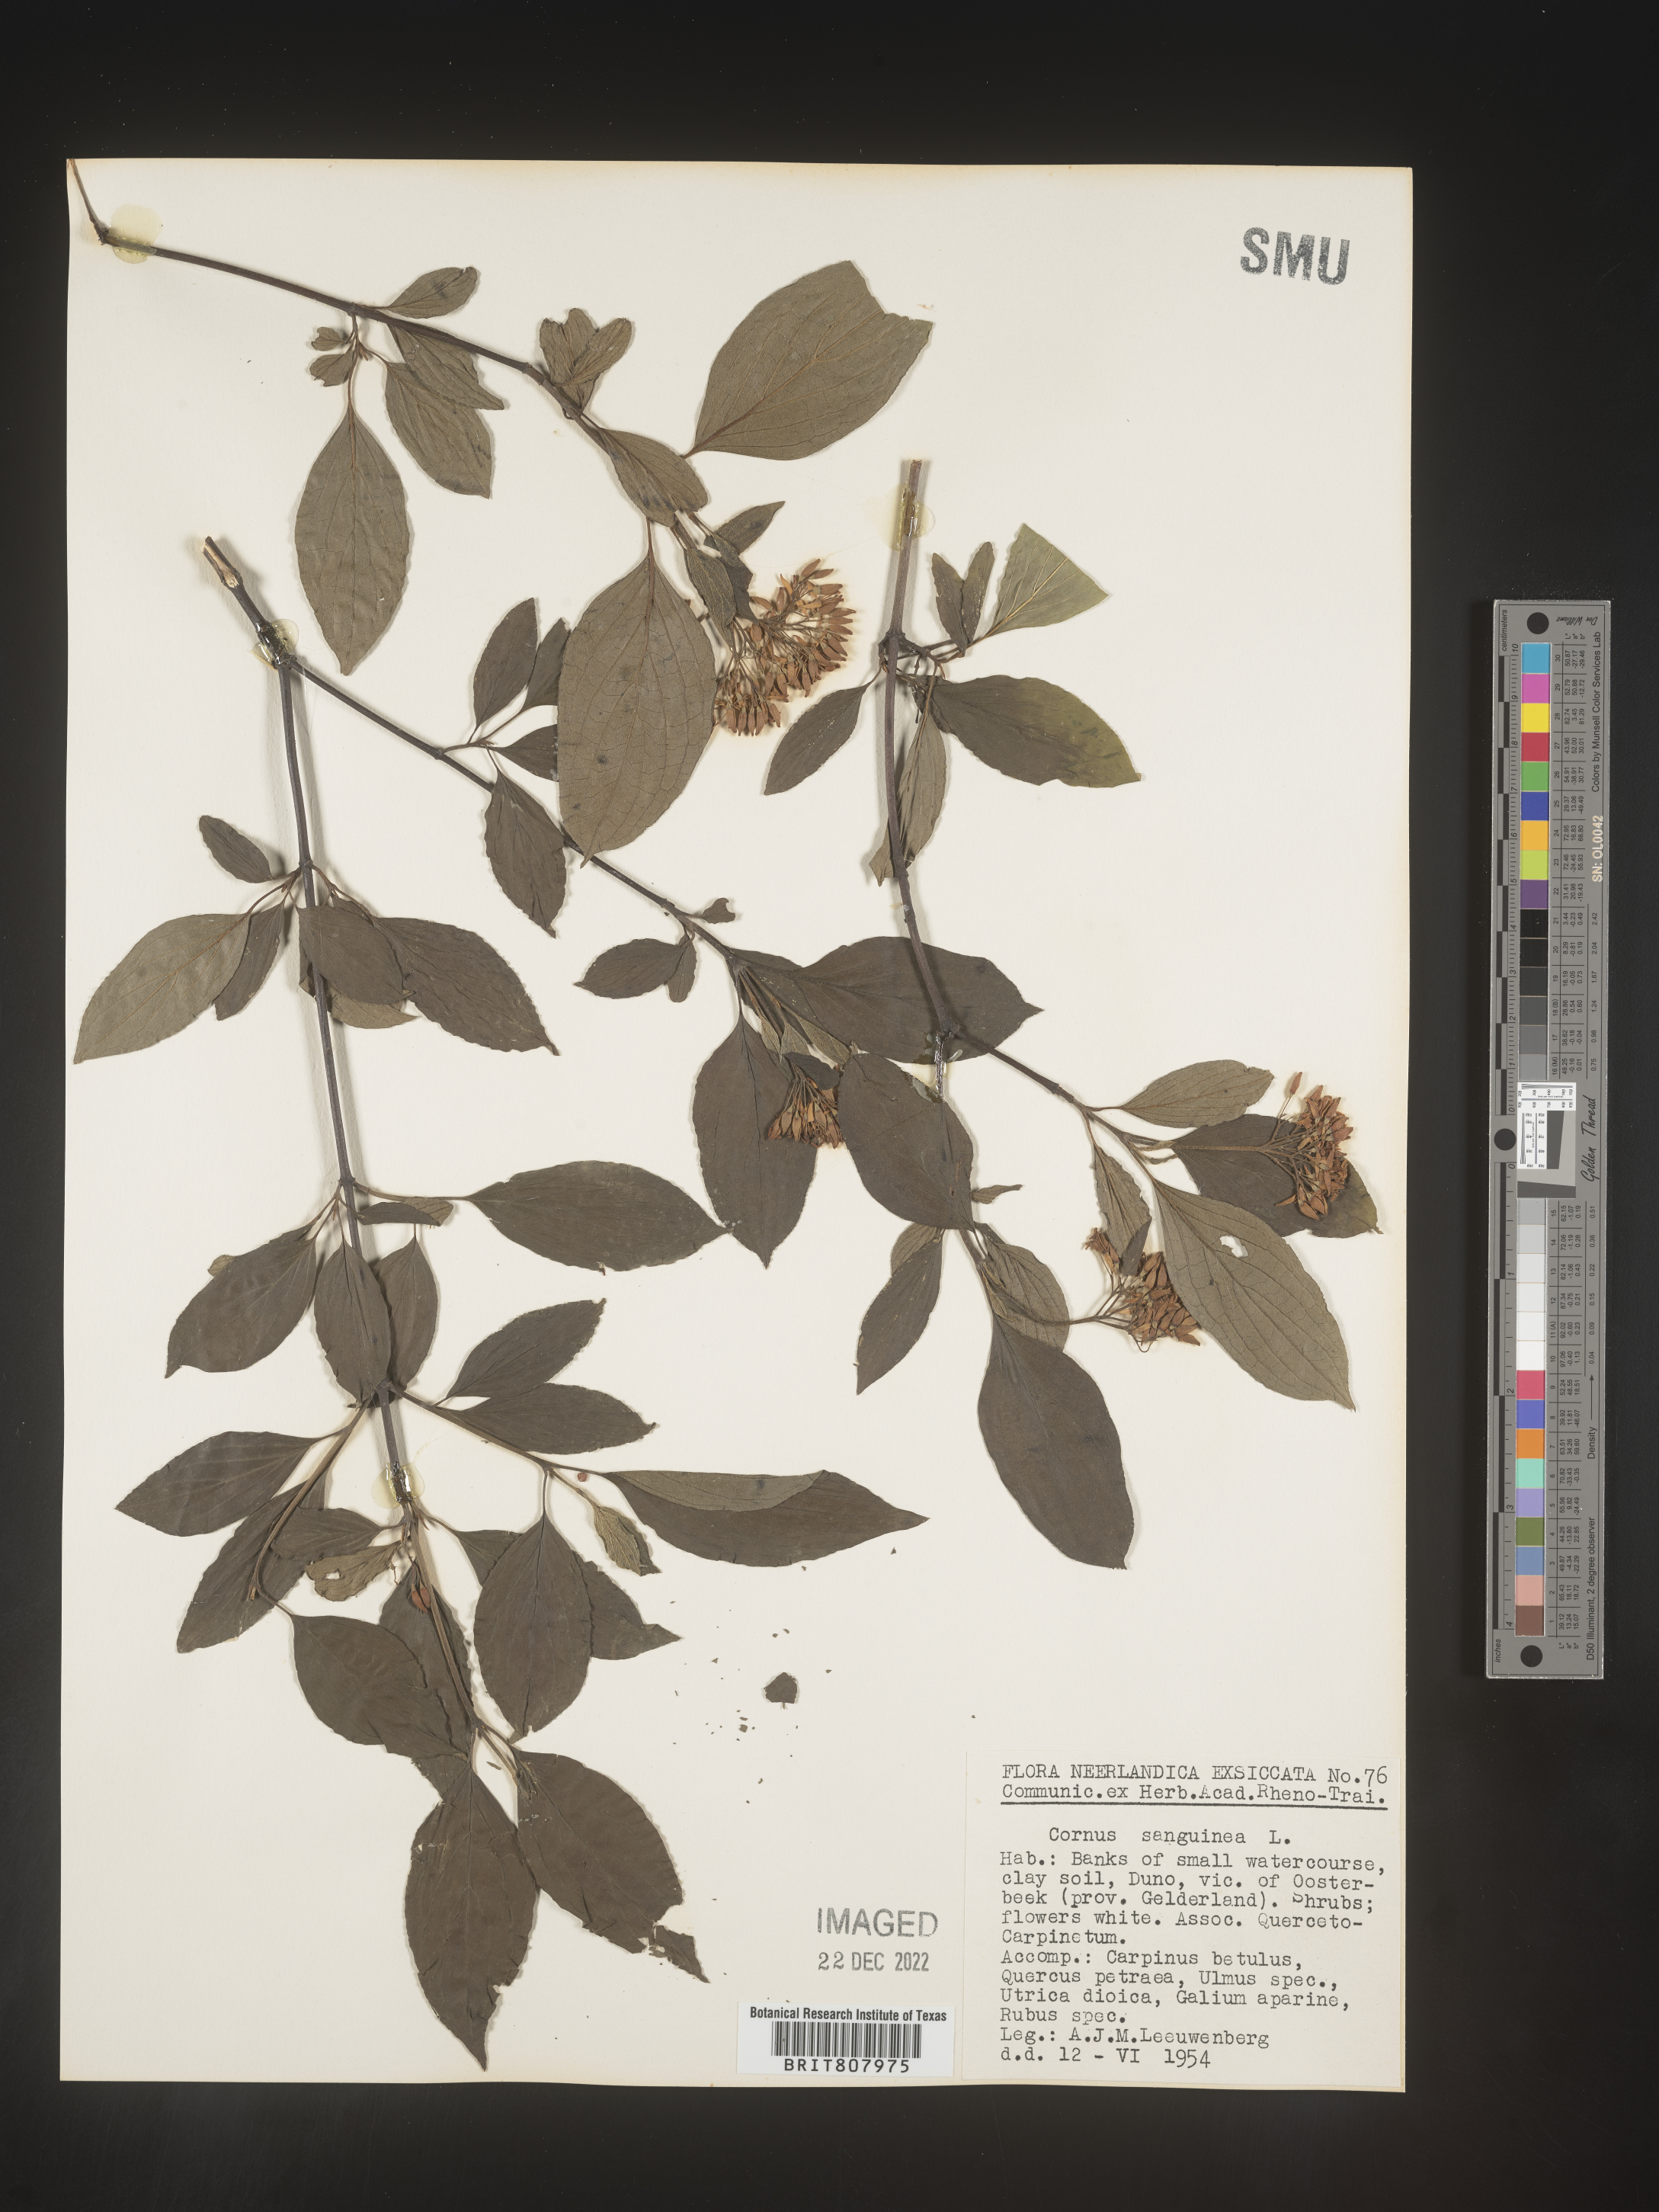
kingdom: Plantae
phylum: Tracheophyta
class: Magnoliopsida
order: Cornales
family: Cornaceae
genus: Cornus
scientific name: Cornus
